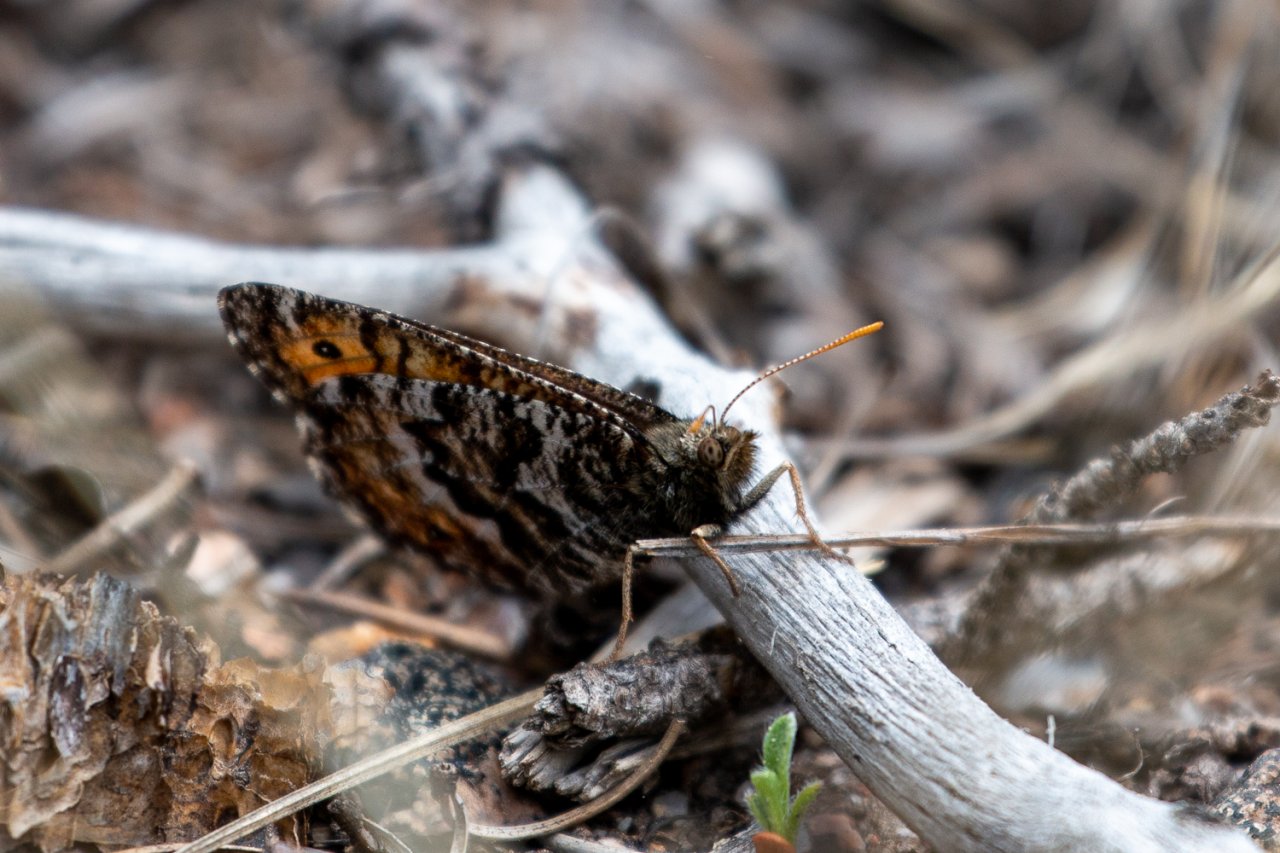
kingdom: Animalia
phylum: Arthropoda
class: Insecta
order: Lepidoptera
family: Nymphalidae
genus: Oeneis
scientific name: Oeneis chryxus
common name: Chryxus Arctic
